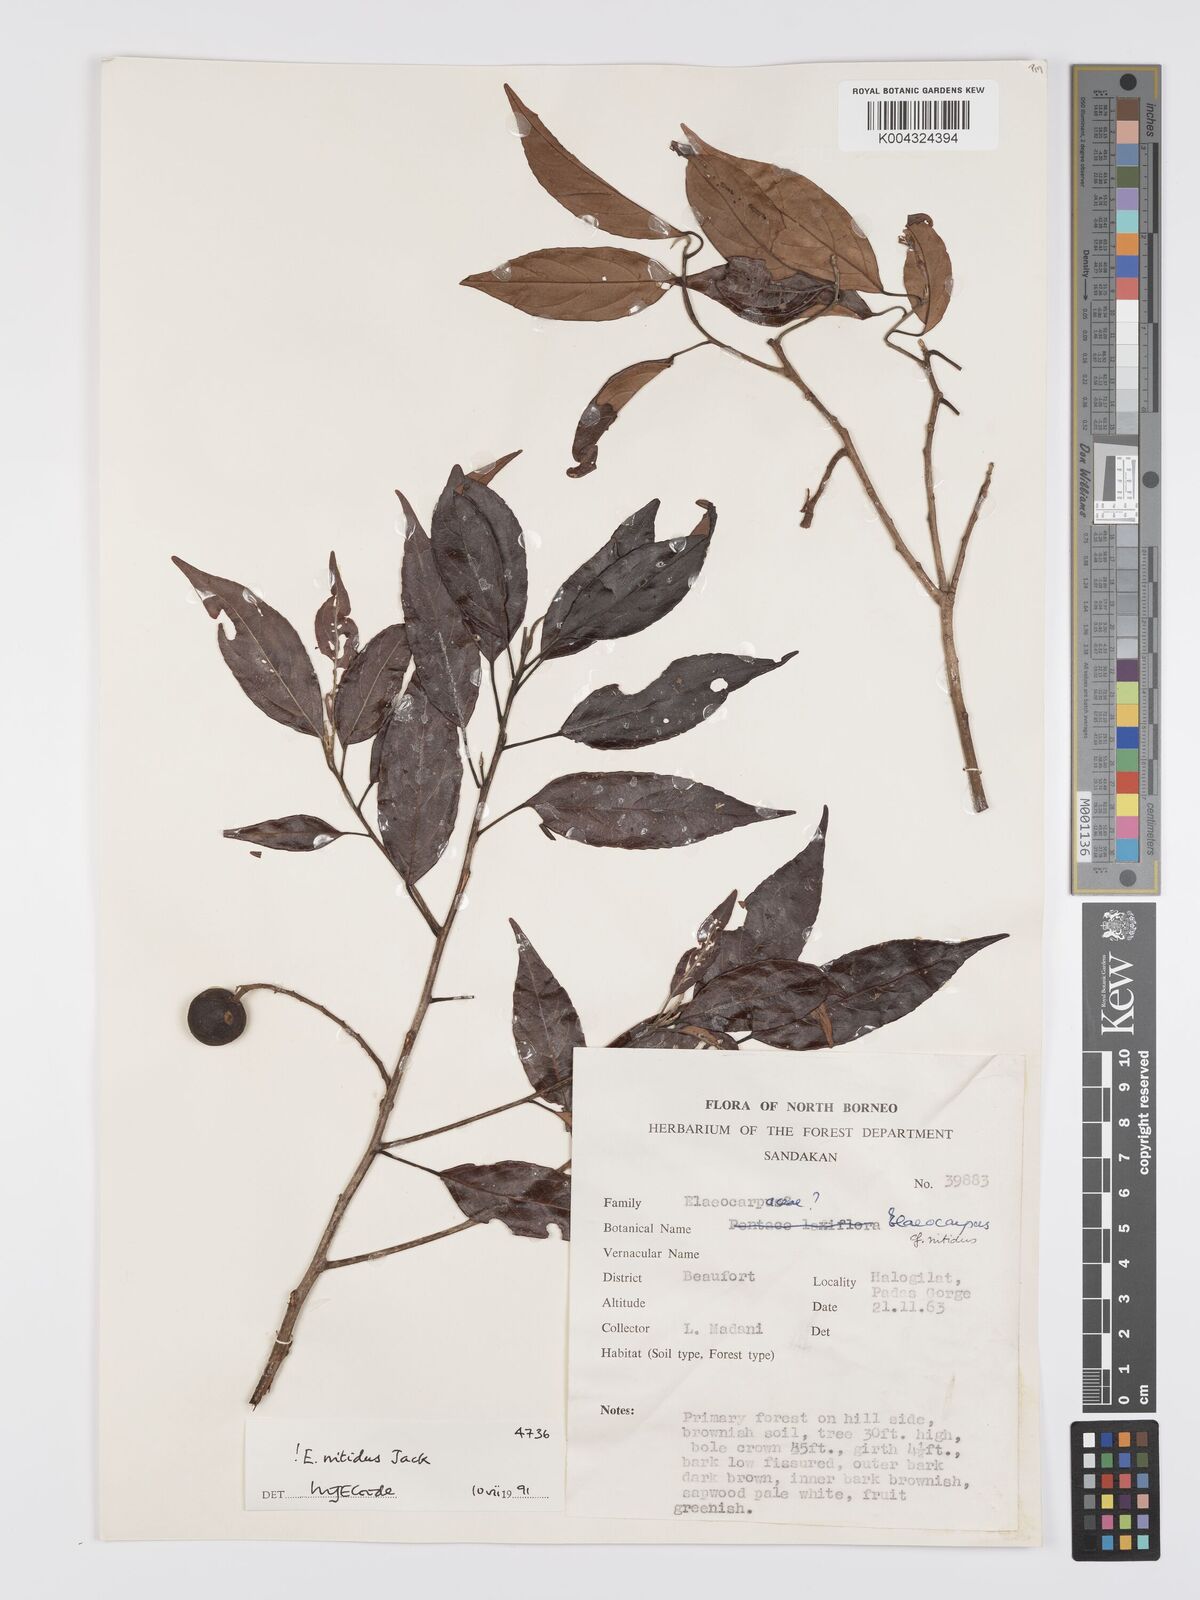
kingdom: Plantae
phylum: Tracheophyta
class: Magnoliopsida
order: Oxalidales
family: Elaeocarpaceae
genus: Elaeocarpus
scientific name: Elaeocarpus nitidus
